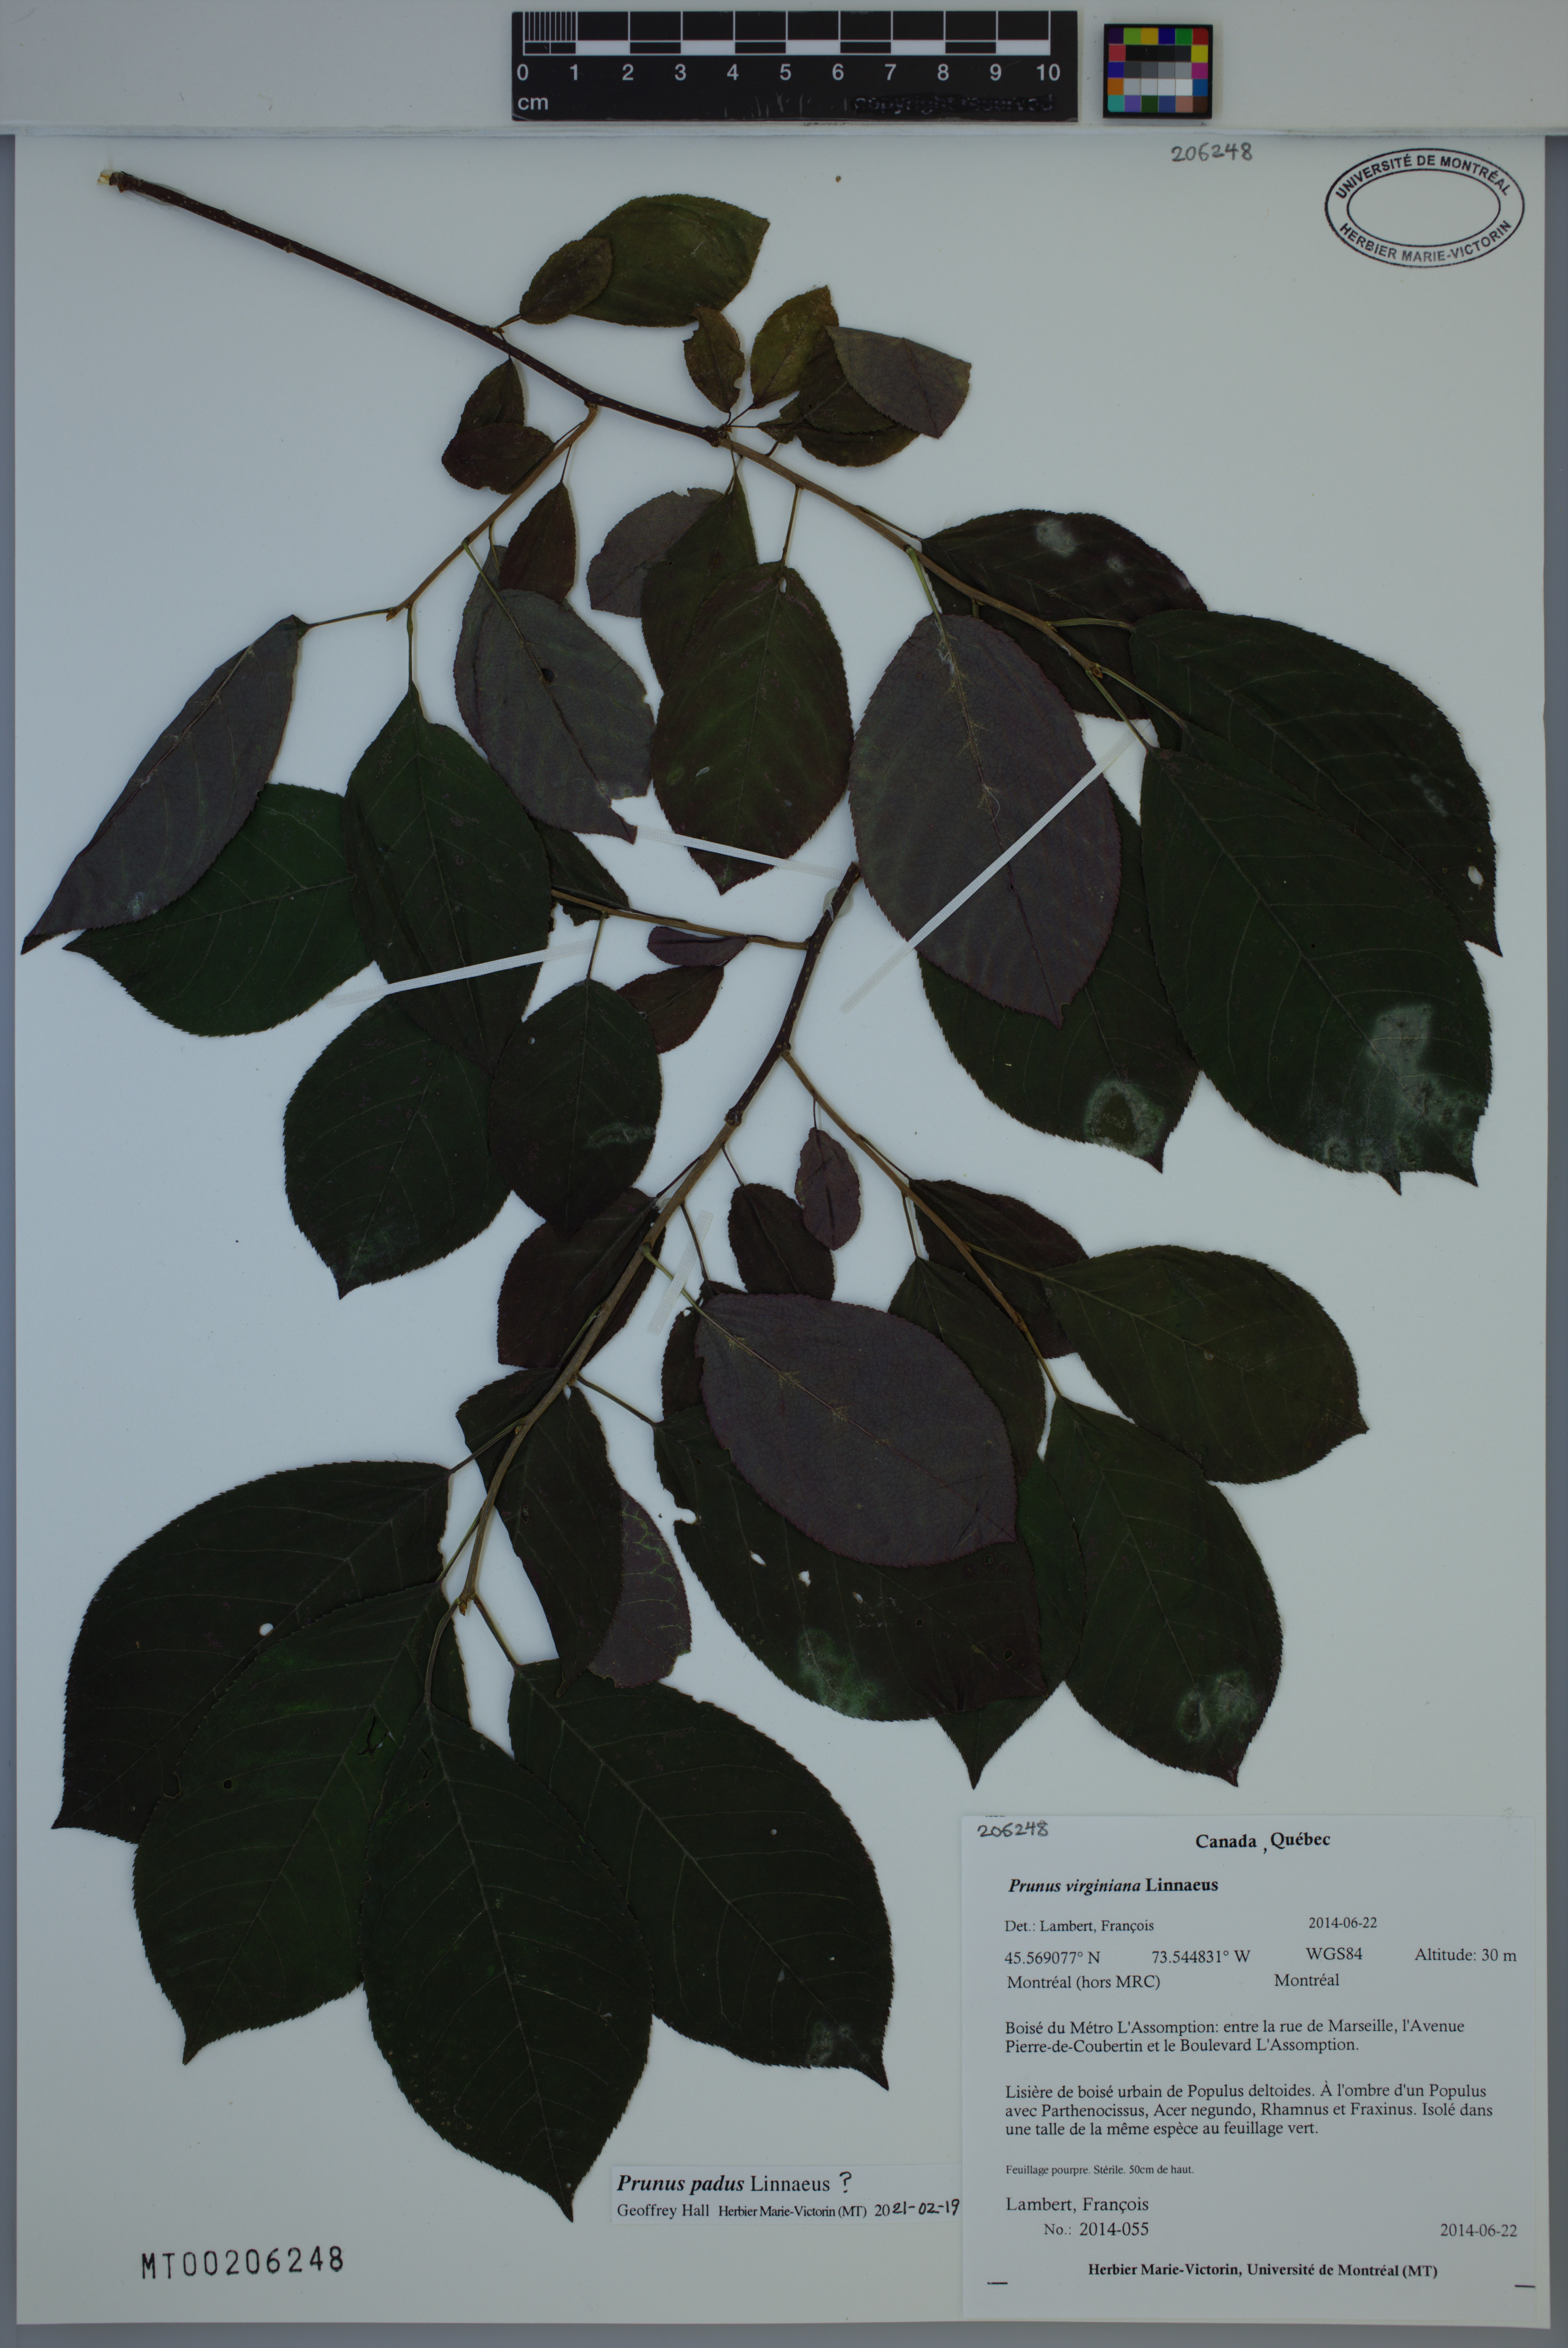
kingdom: Plantae
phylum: Tracheophyta
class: Magnoliopsida
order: Rosales
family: Rosaceae
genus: Prunus
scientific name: Prunus padus
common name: Bird cherry
